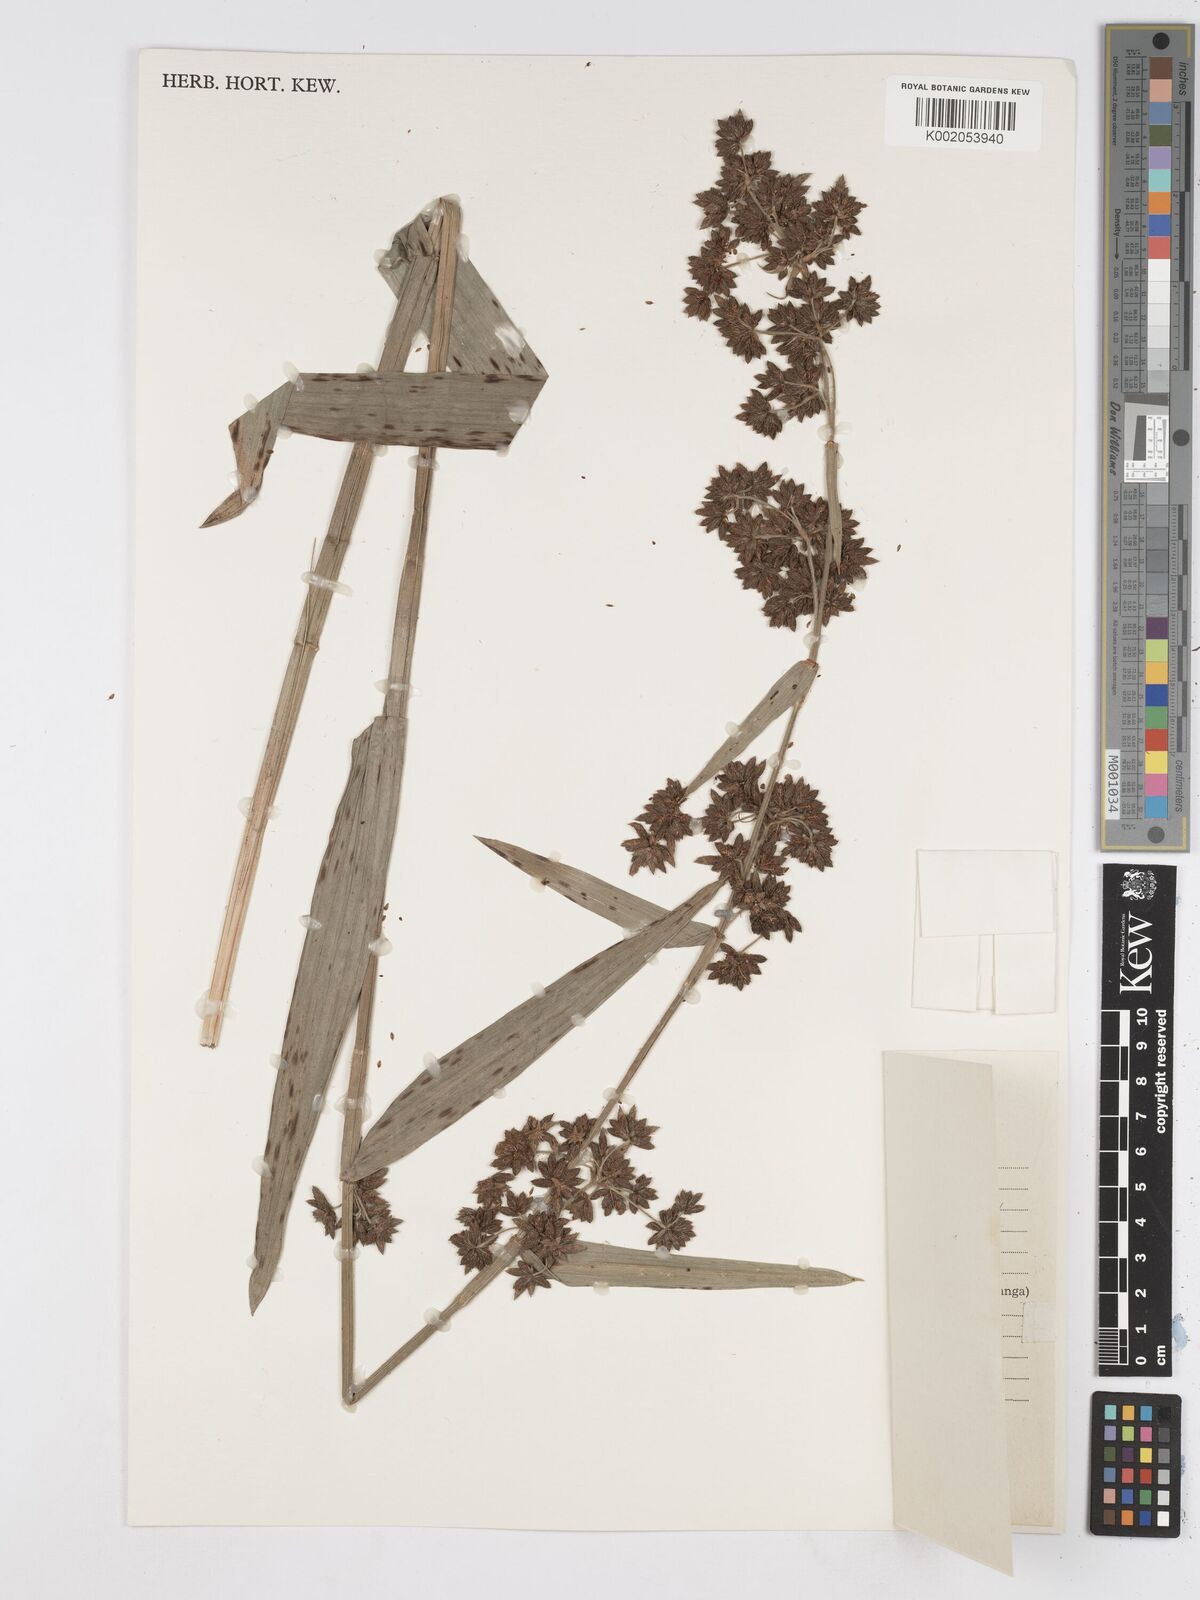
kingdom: Plantae
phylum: Tracheophyta
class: Liliopsida
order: Poales
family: Cyperaceae
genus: Fuirena
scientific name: Fuirena umbellata
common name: Yefen
